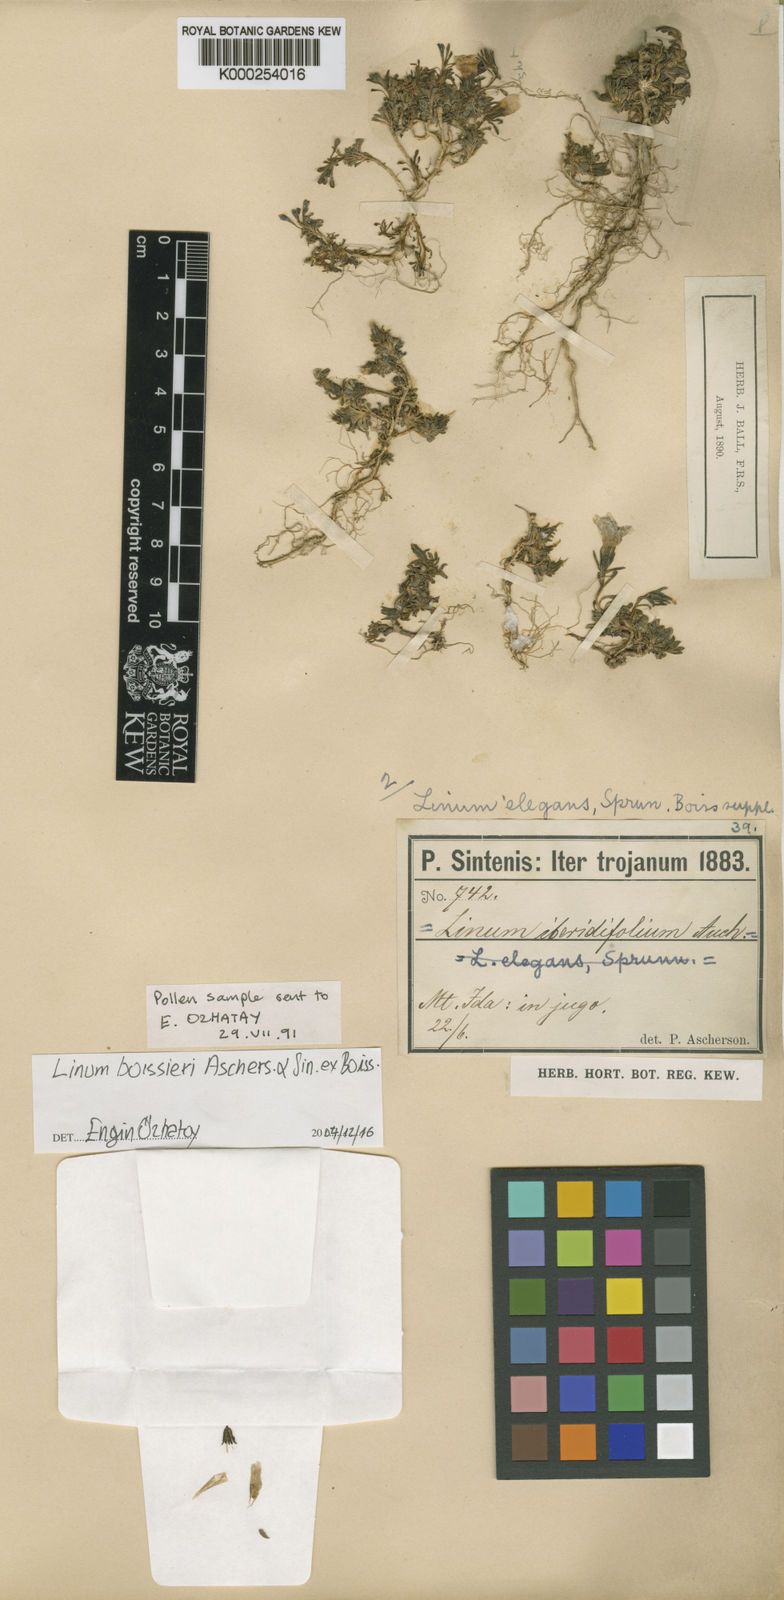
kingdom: Plantae
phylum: Tracheophyta
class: Magnoliopsida
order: Malpighiales
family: Linaceae
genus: Linum
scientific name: Linum boissieri
